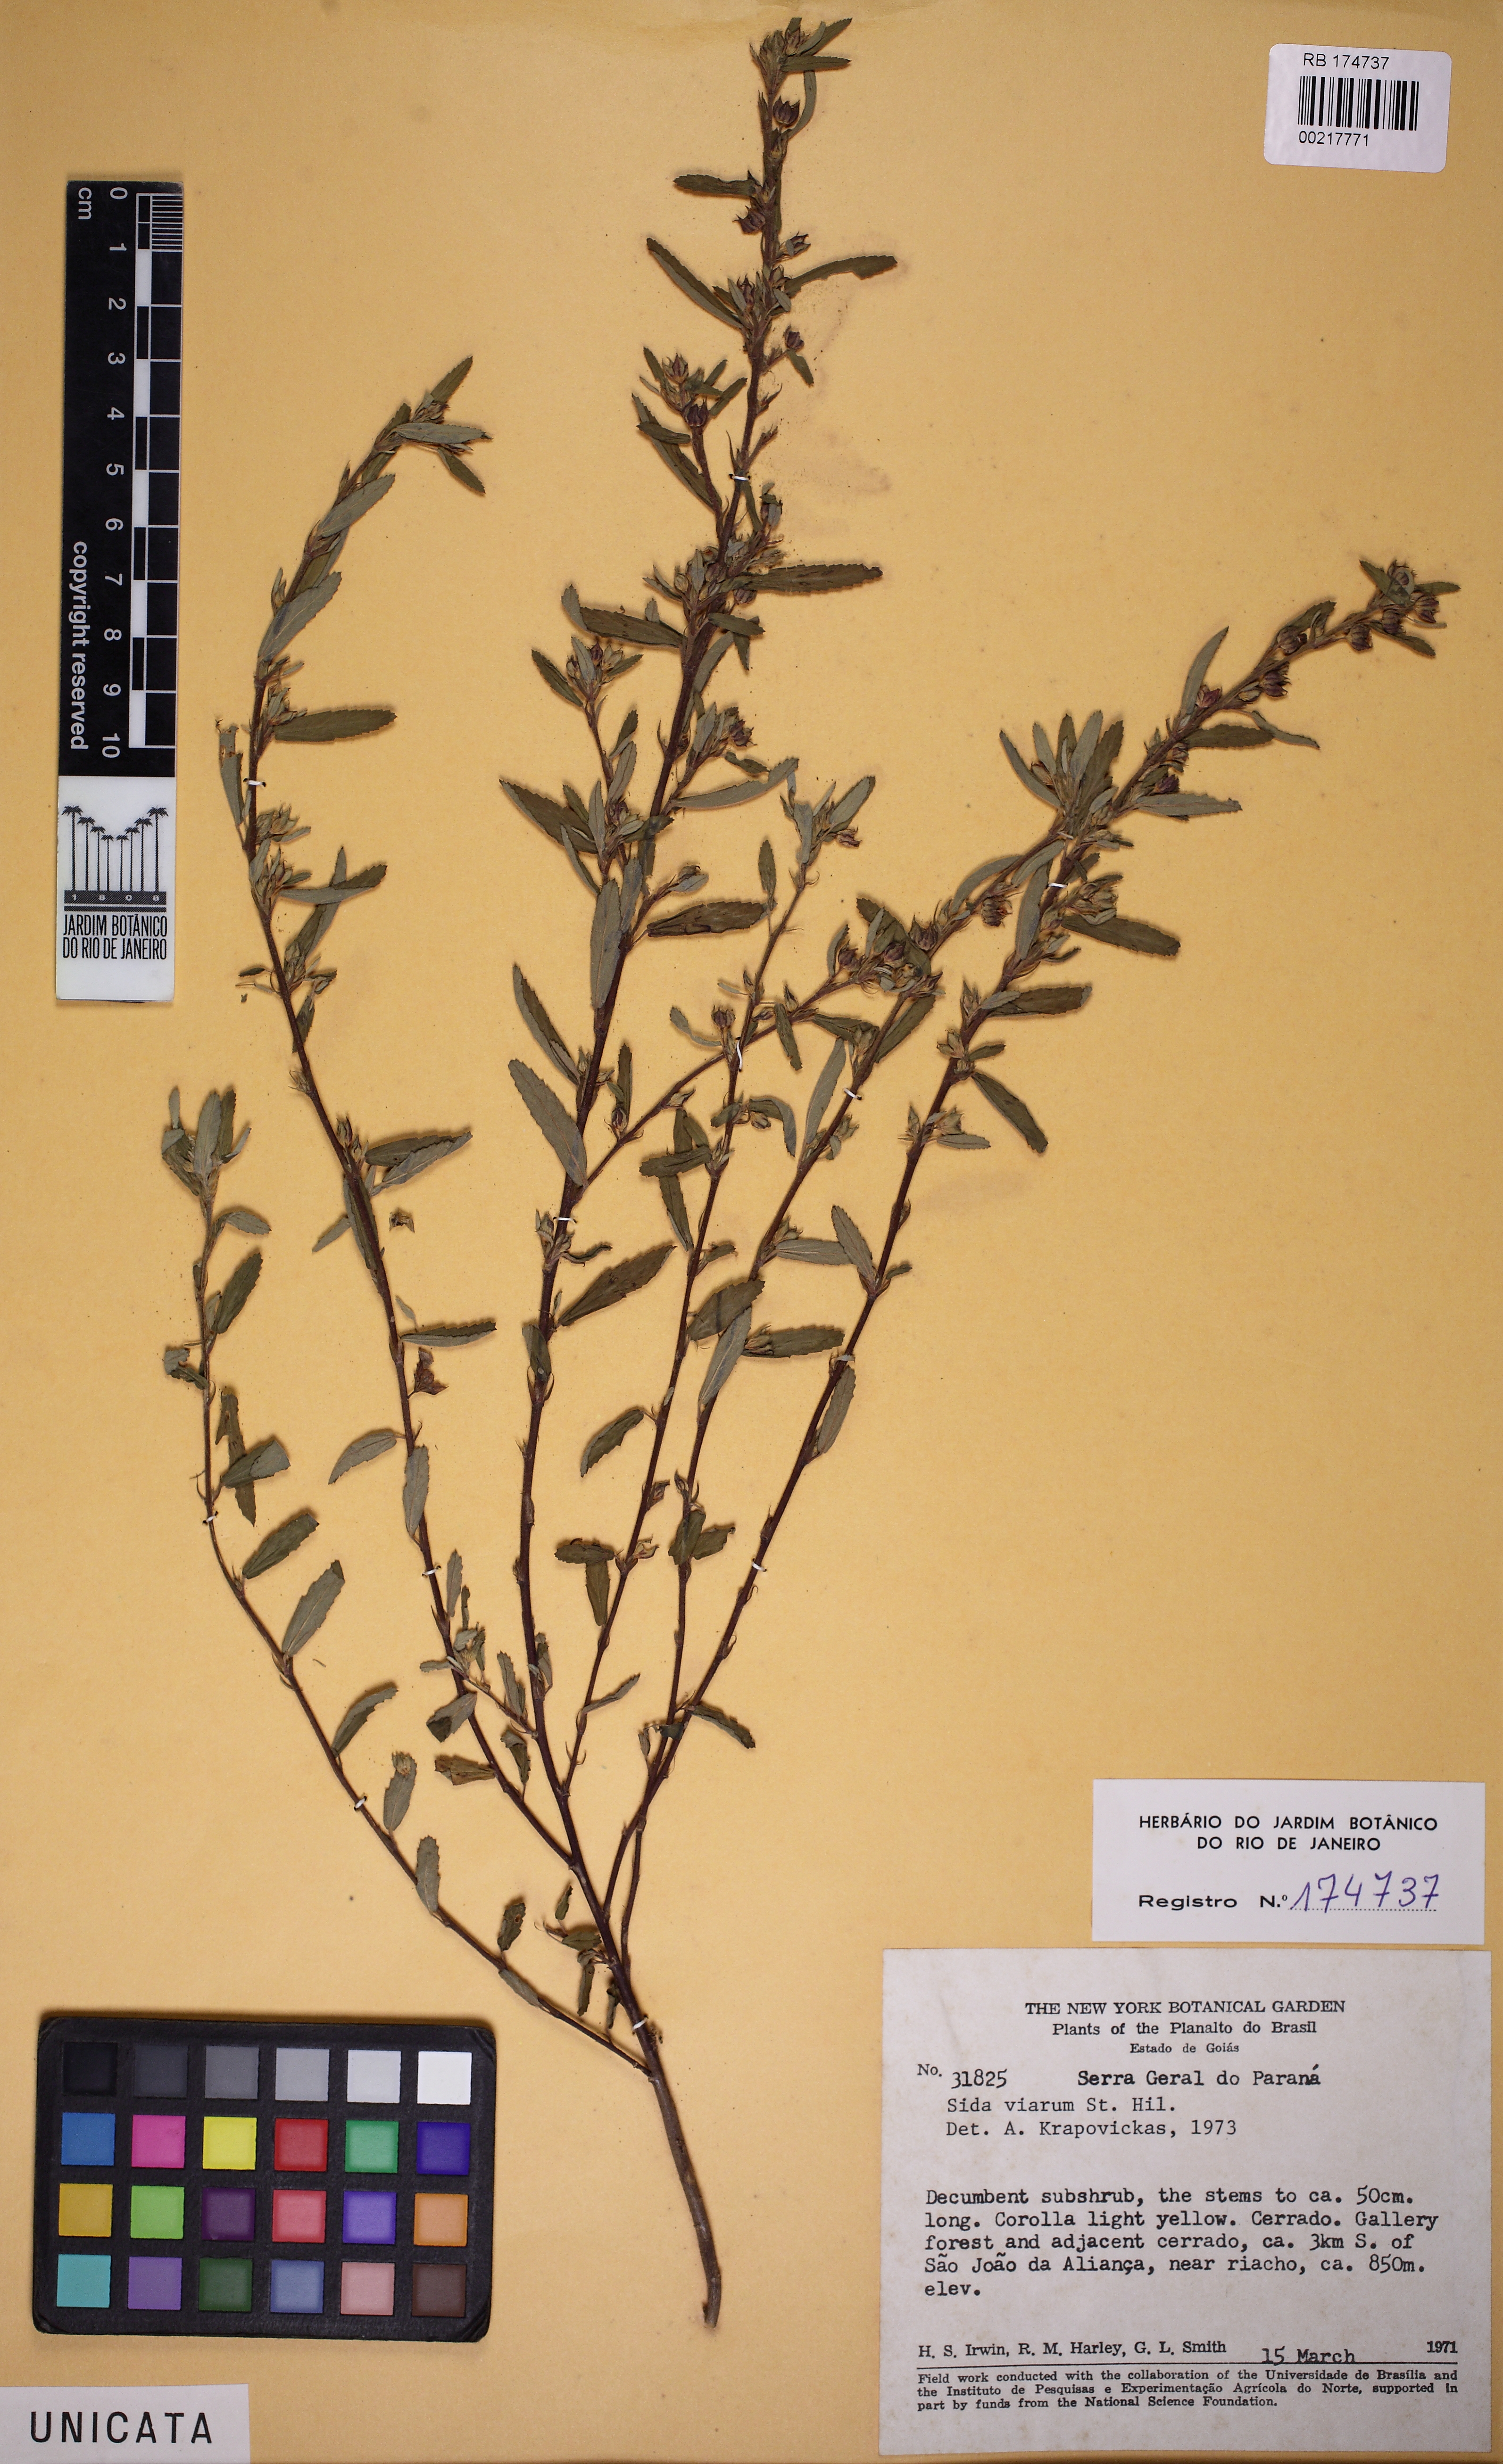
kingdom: Plantae
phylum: Tracheophyta
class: Magnoliopsida
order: Malvales
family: Malvaceae
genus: Sida
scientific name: Sida viarum
